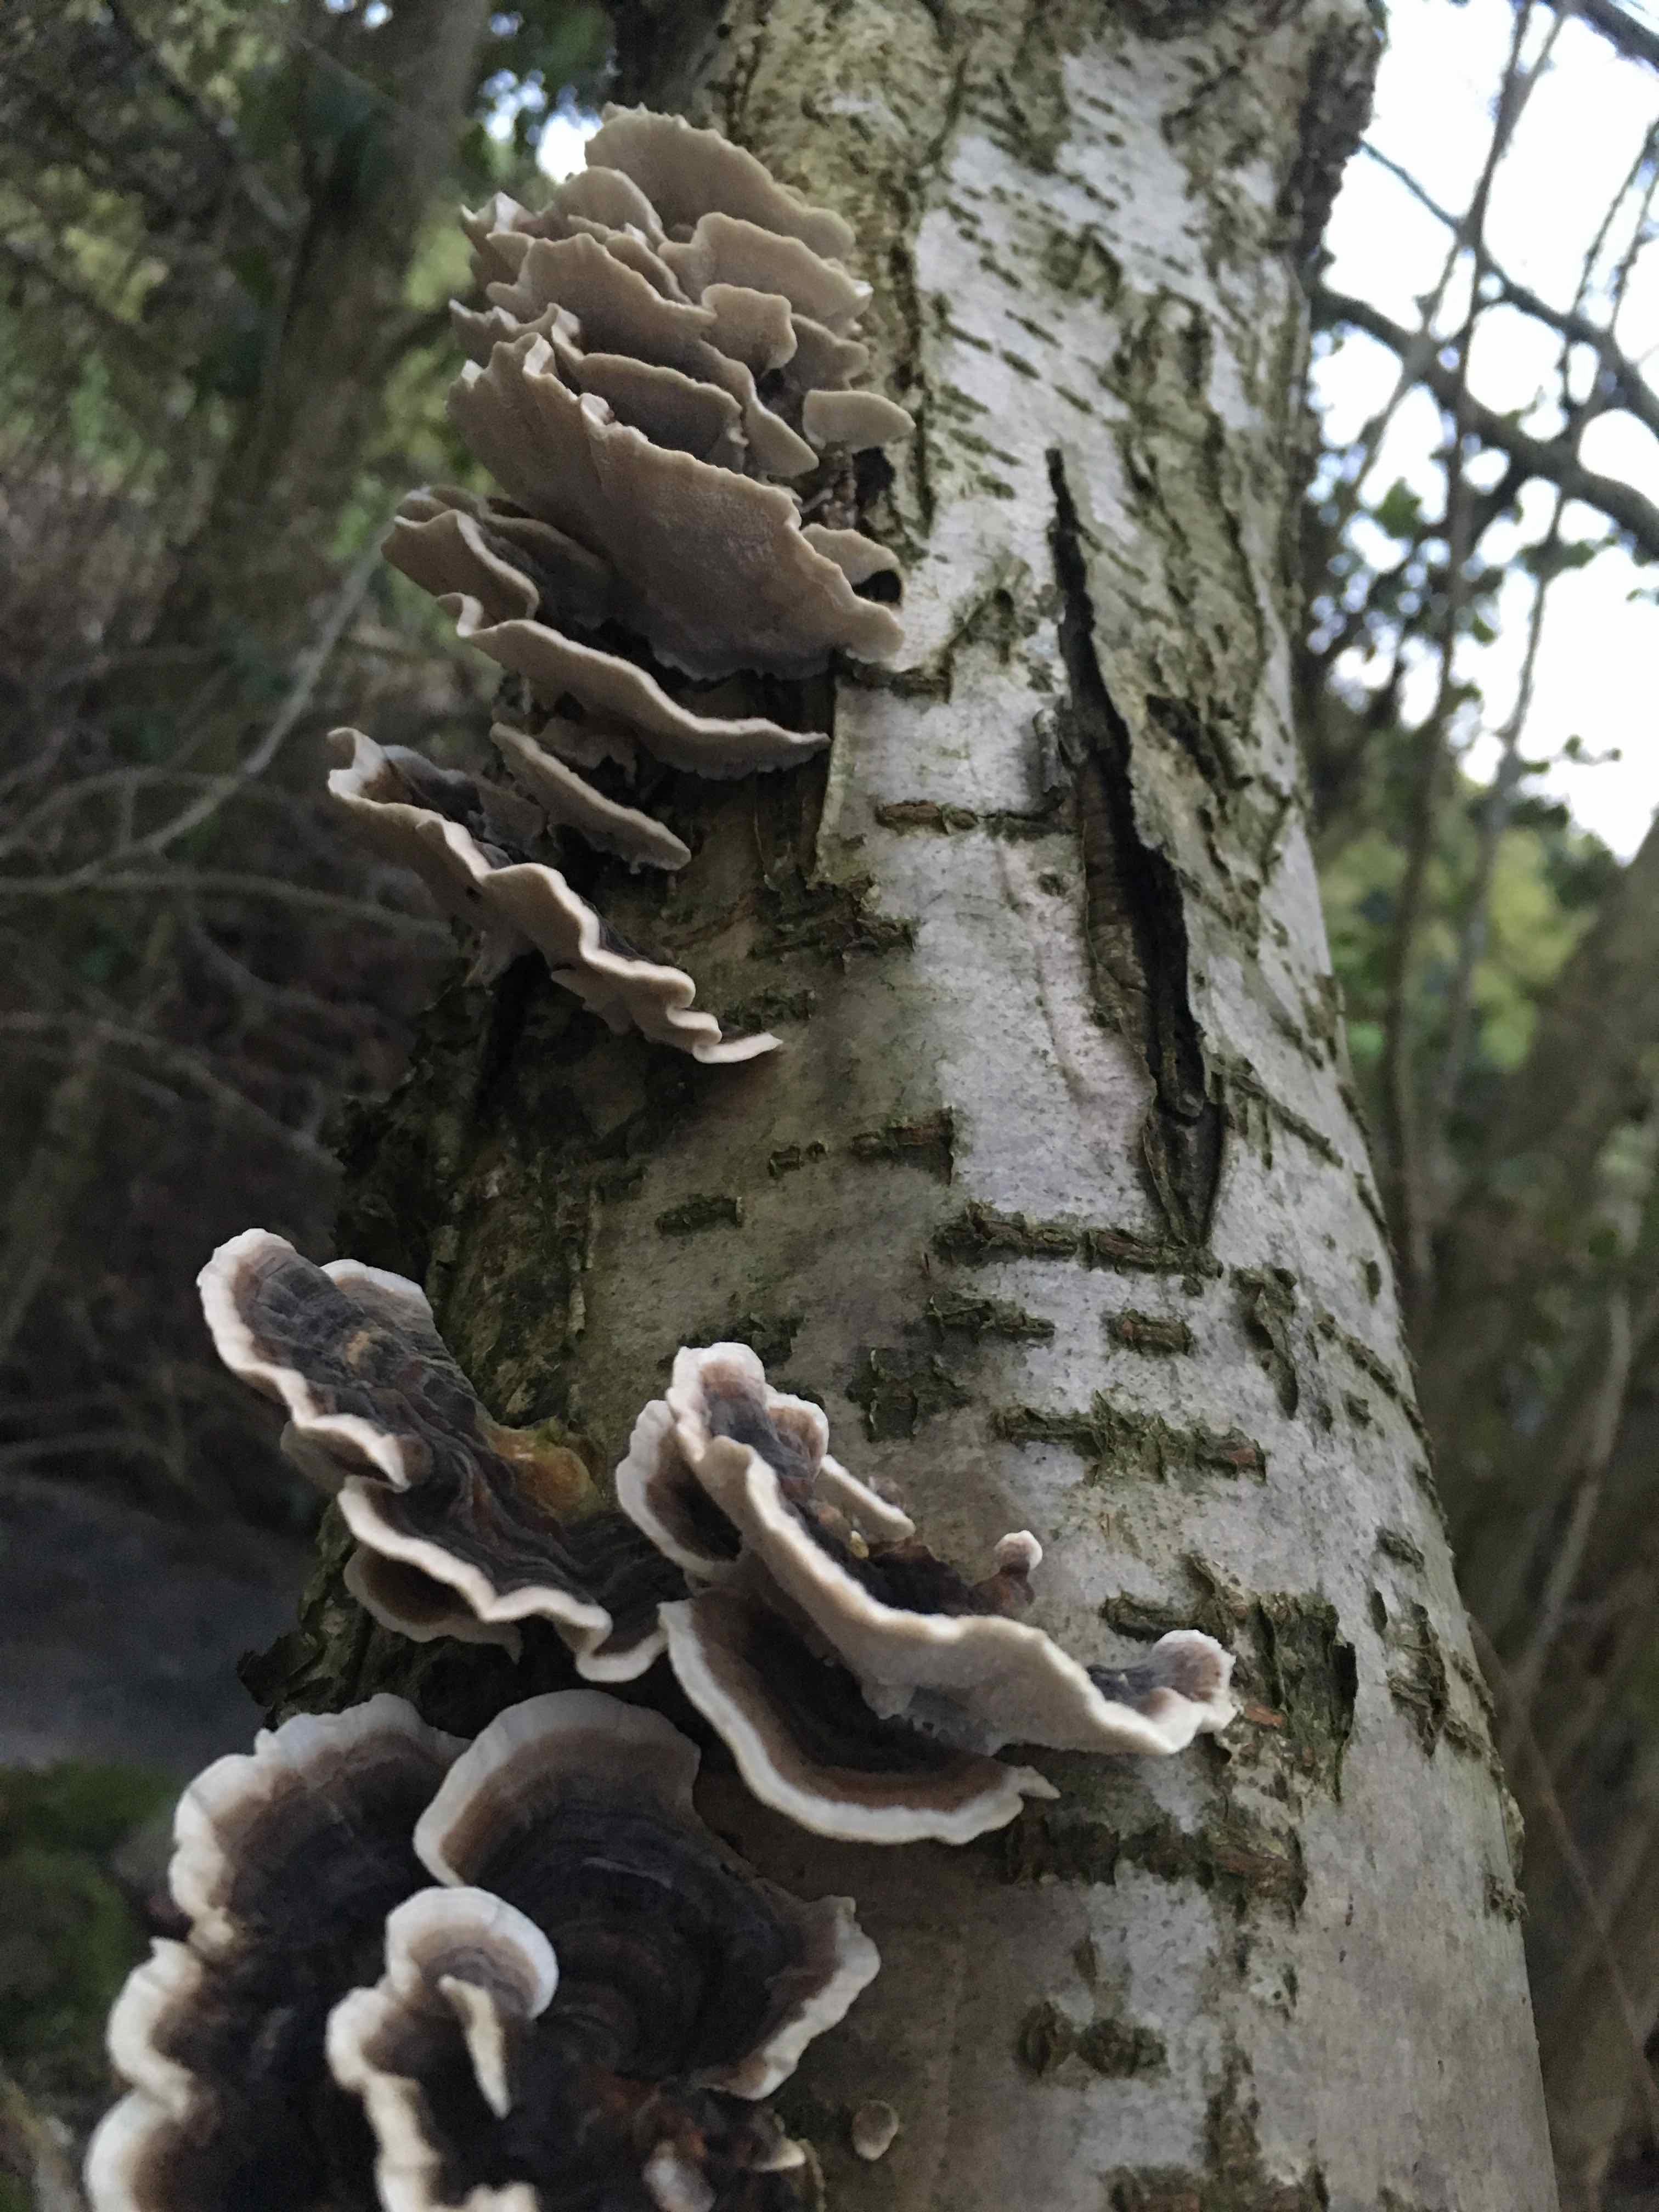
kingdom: Fungi
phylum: Basidiomycota
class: Agaricomycetes
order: Polyporales
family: Polyporaceae
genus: Trametes
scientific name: Trametes versicolor
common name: broget læderporesvamp
